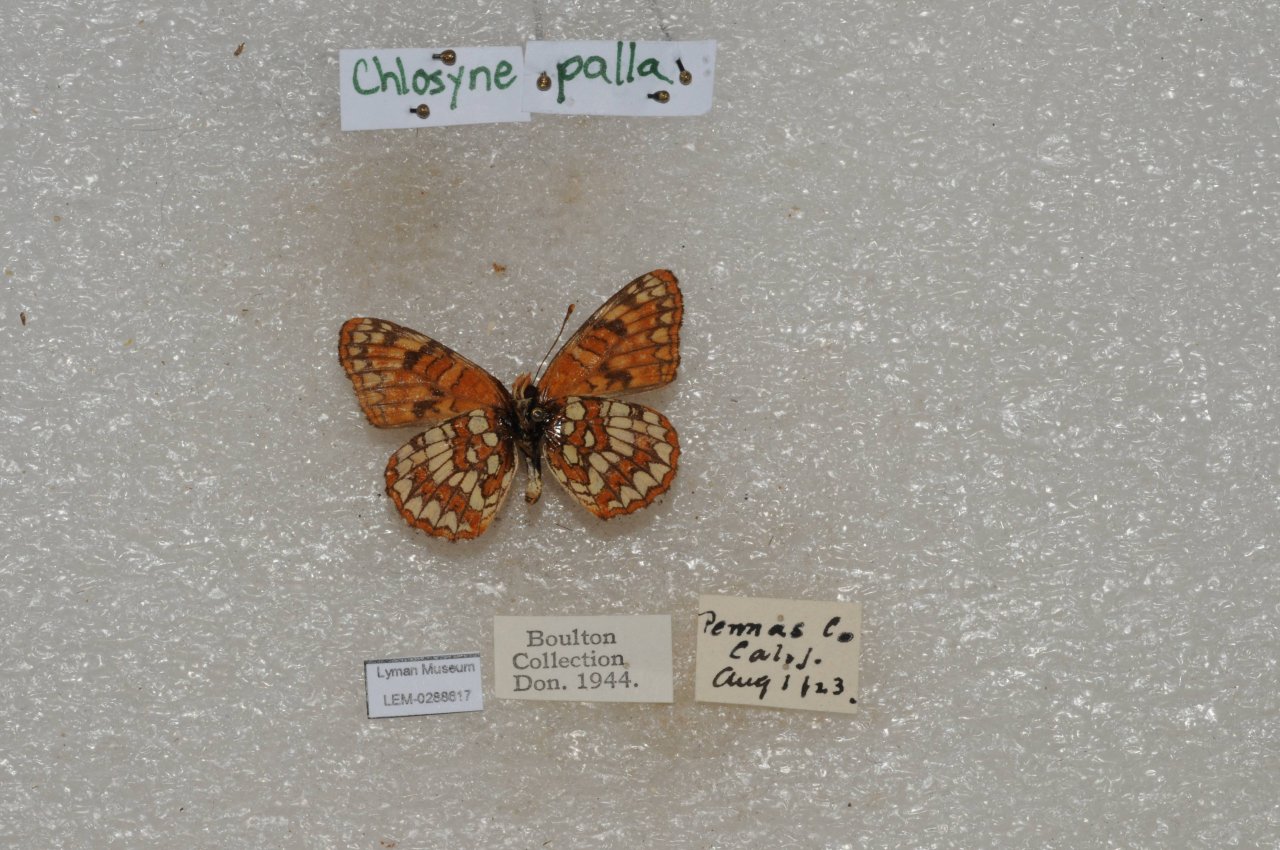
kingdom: Animalia
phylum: Arthropoda
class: Insecta
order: Lepidoptera
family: Nymphalidae
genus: Chlosyne
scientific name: Chlosyne palla
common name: Northern Checkerspot
